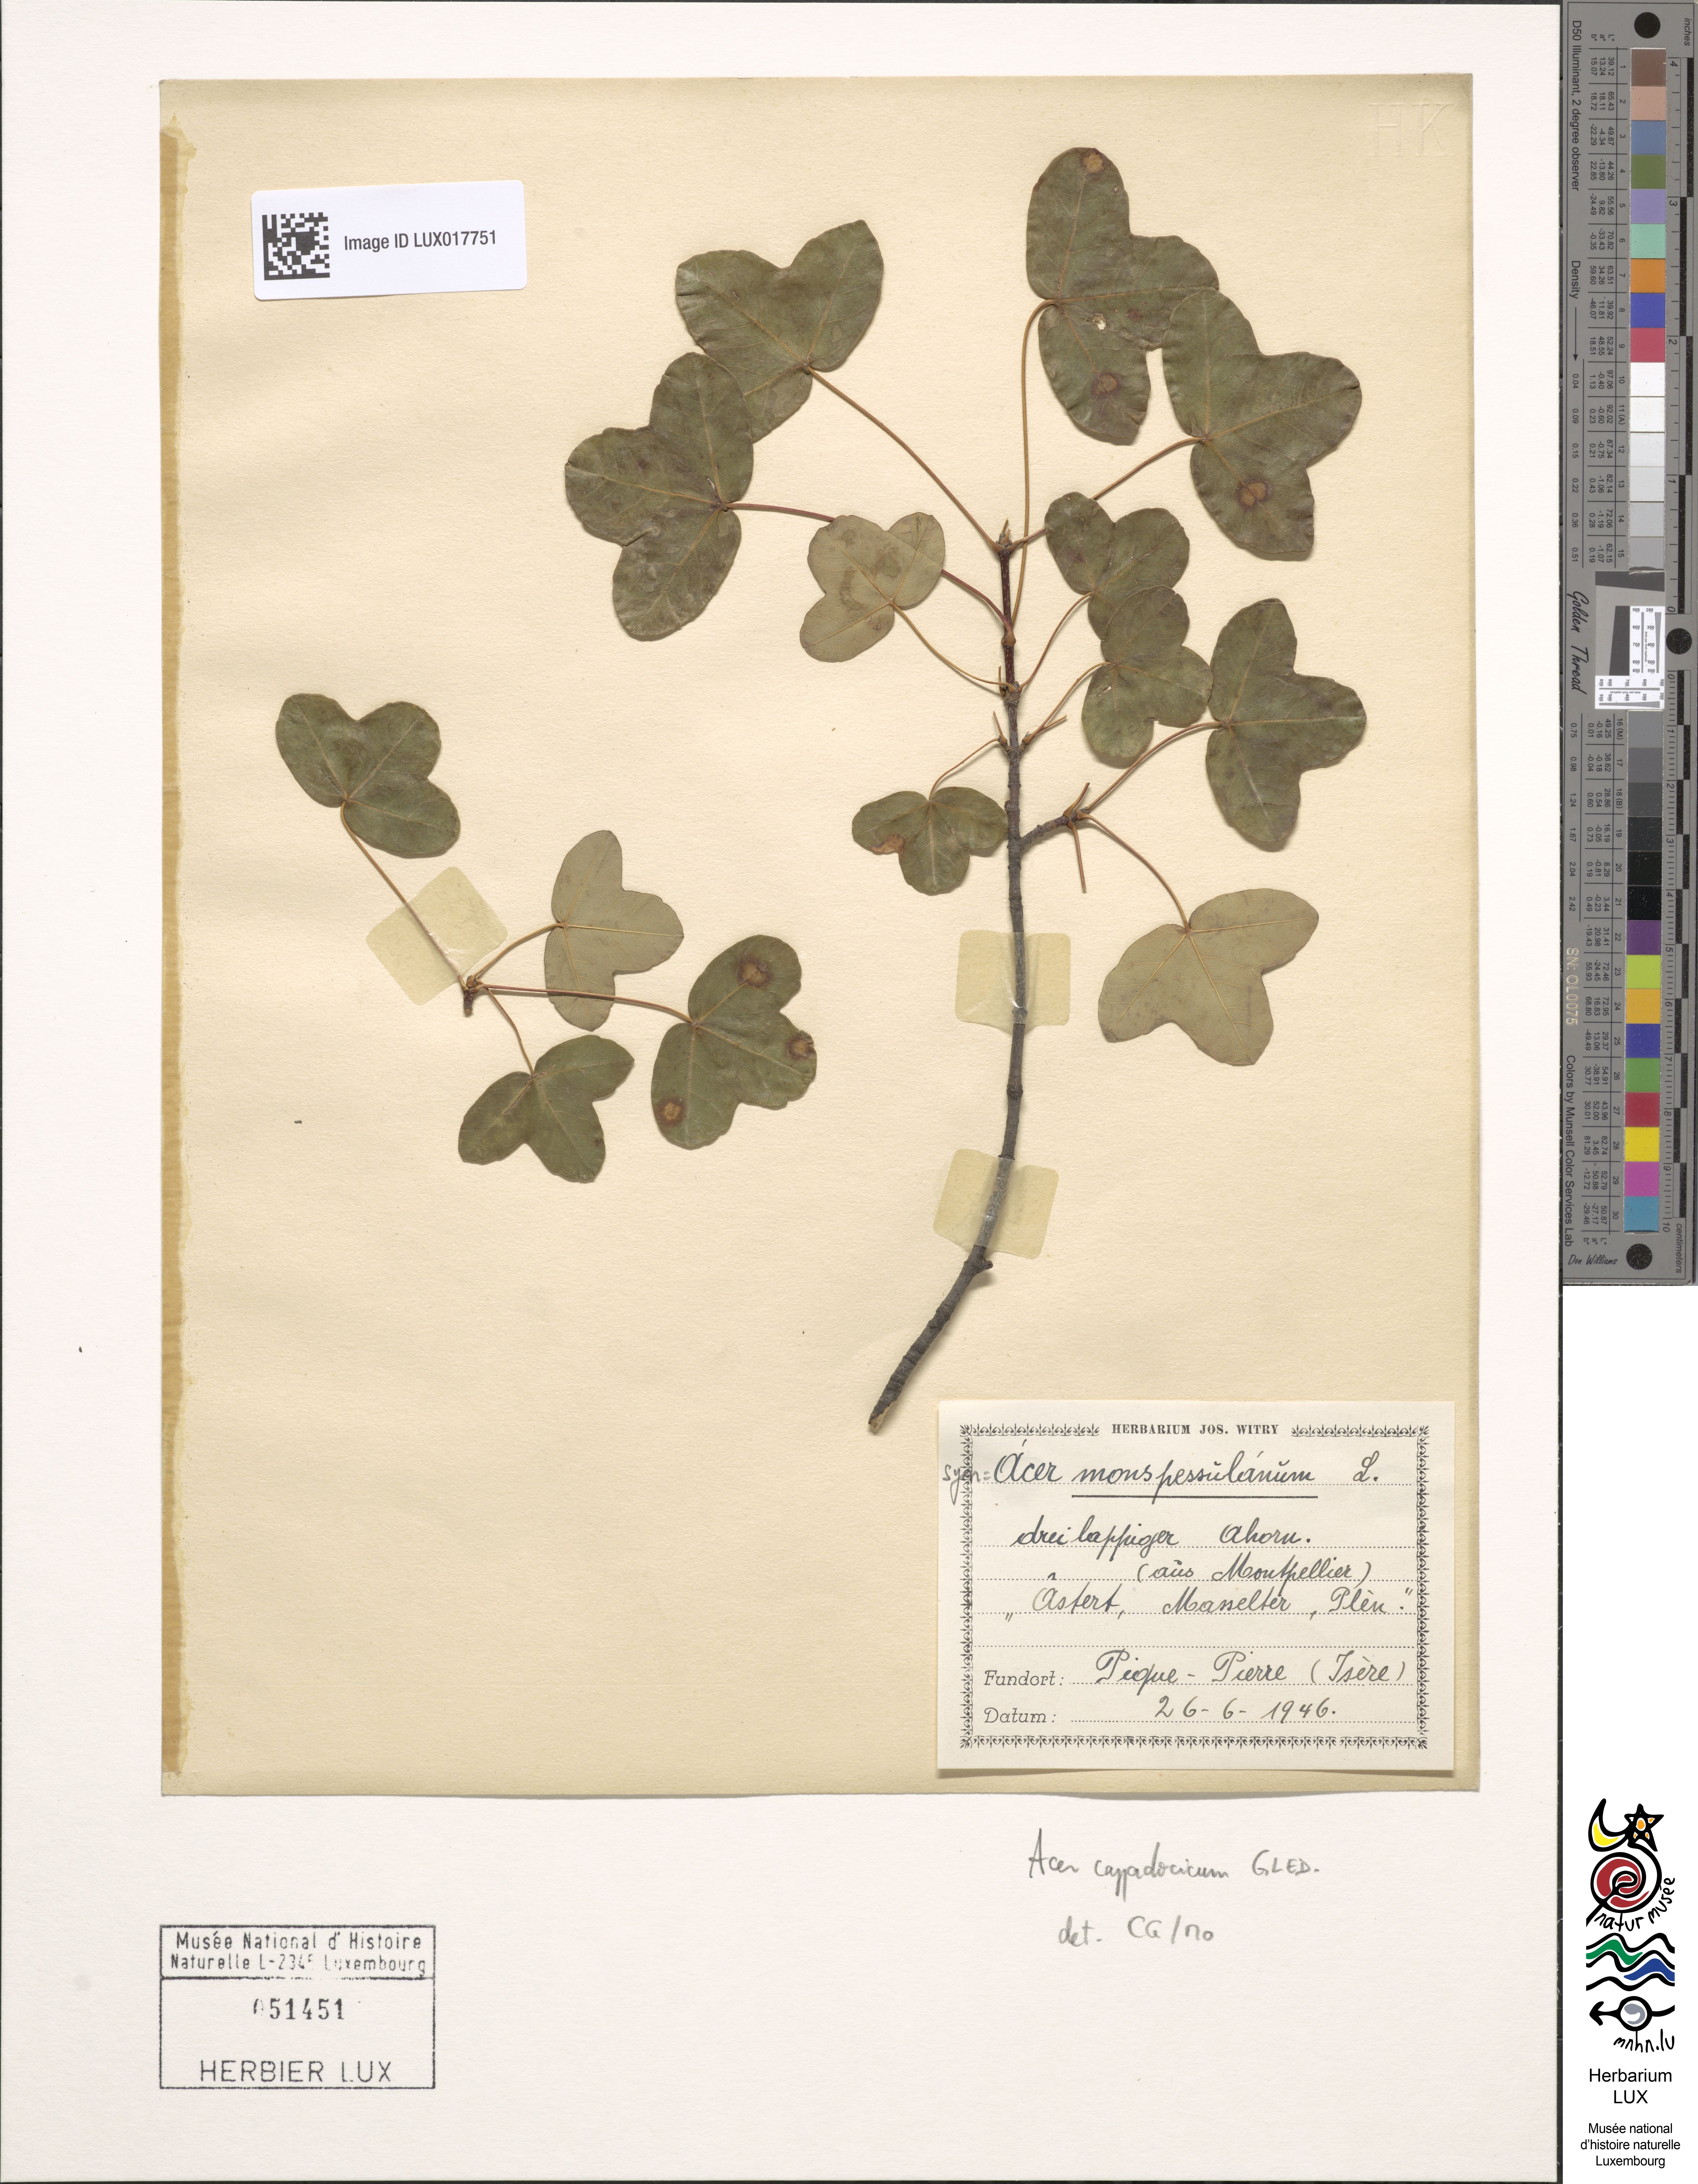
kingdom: Plantae
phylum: Tracheophyta
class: Magnoliopsida
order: Sapindales
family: Sapindaceae
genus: Acer
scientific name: Acer cappadocicum
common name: Cappadocian maple
